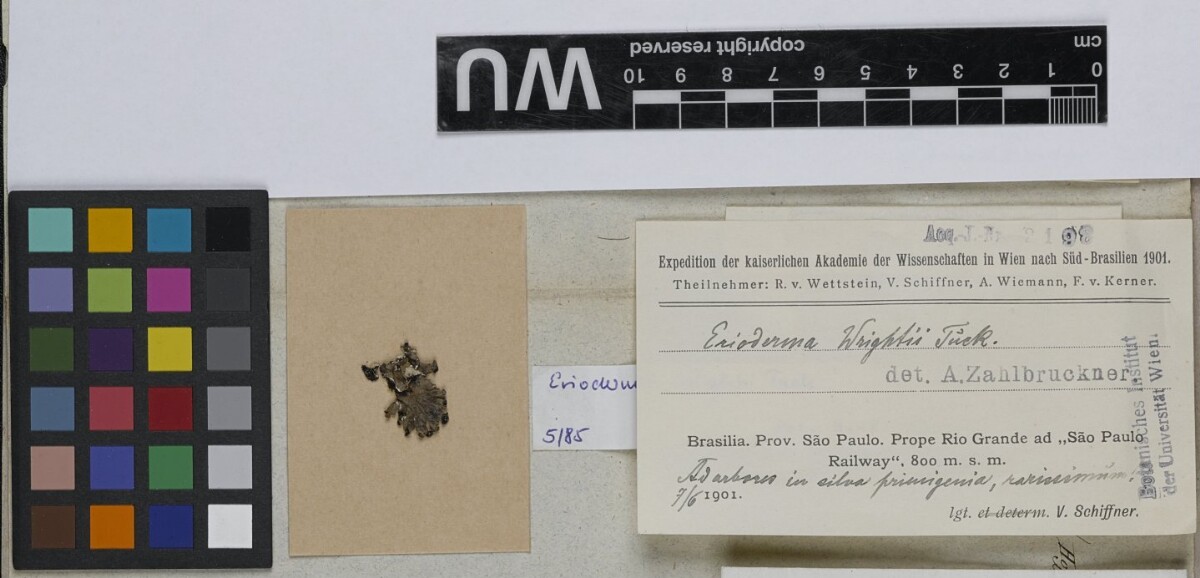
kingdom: Fungi
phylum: Ascomycota
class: Lecanoromycetes
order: Peltigerales
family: Pannariaceae
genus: Erioderma
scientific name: Erioderma wrightii
